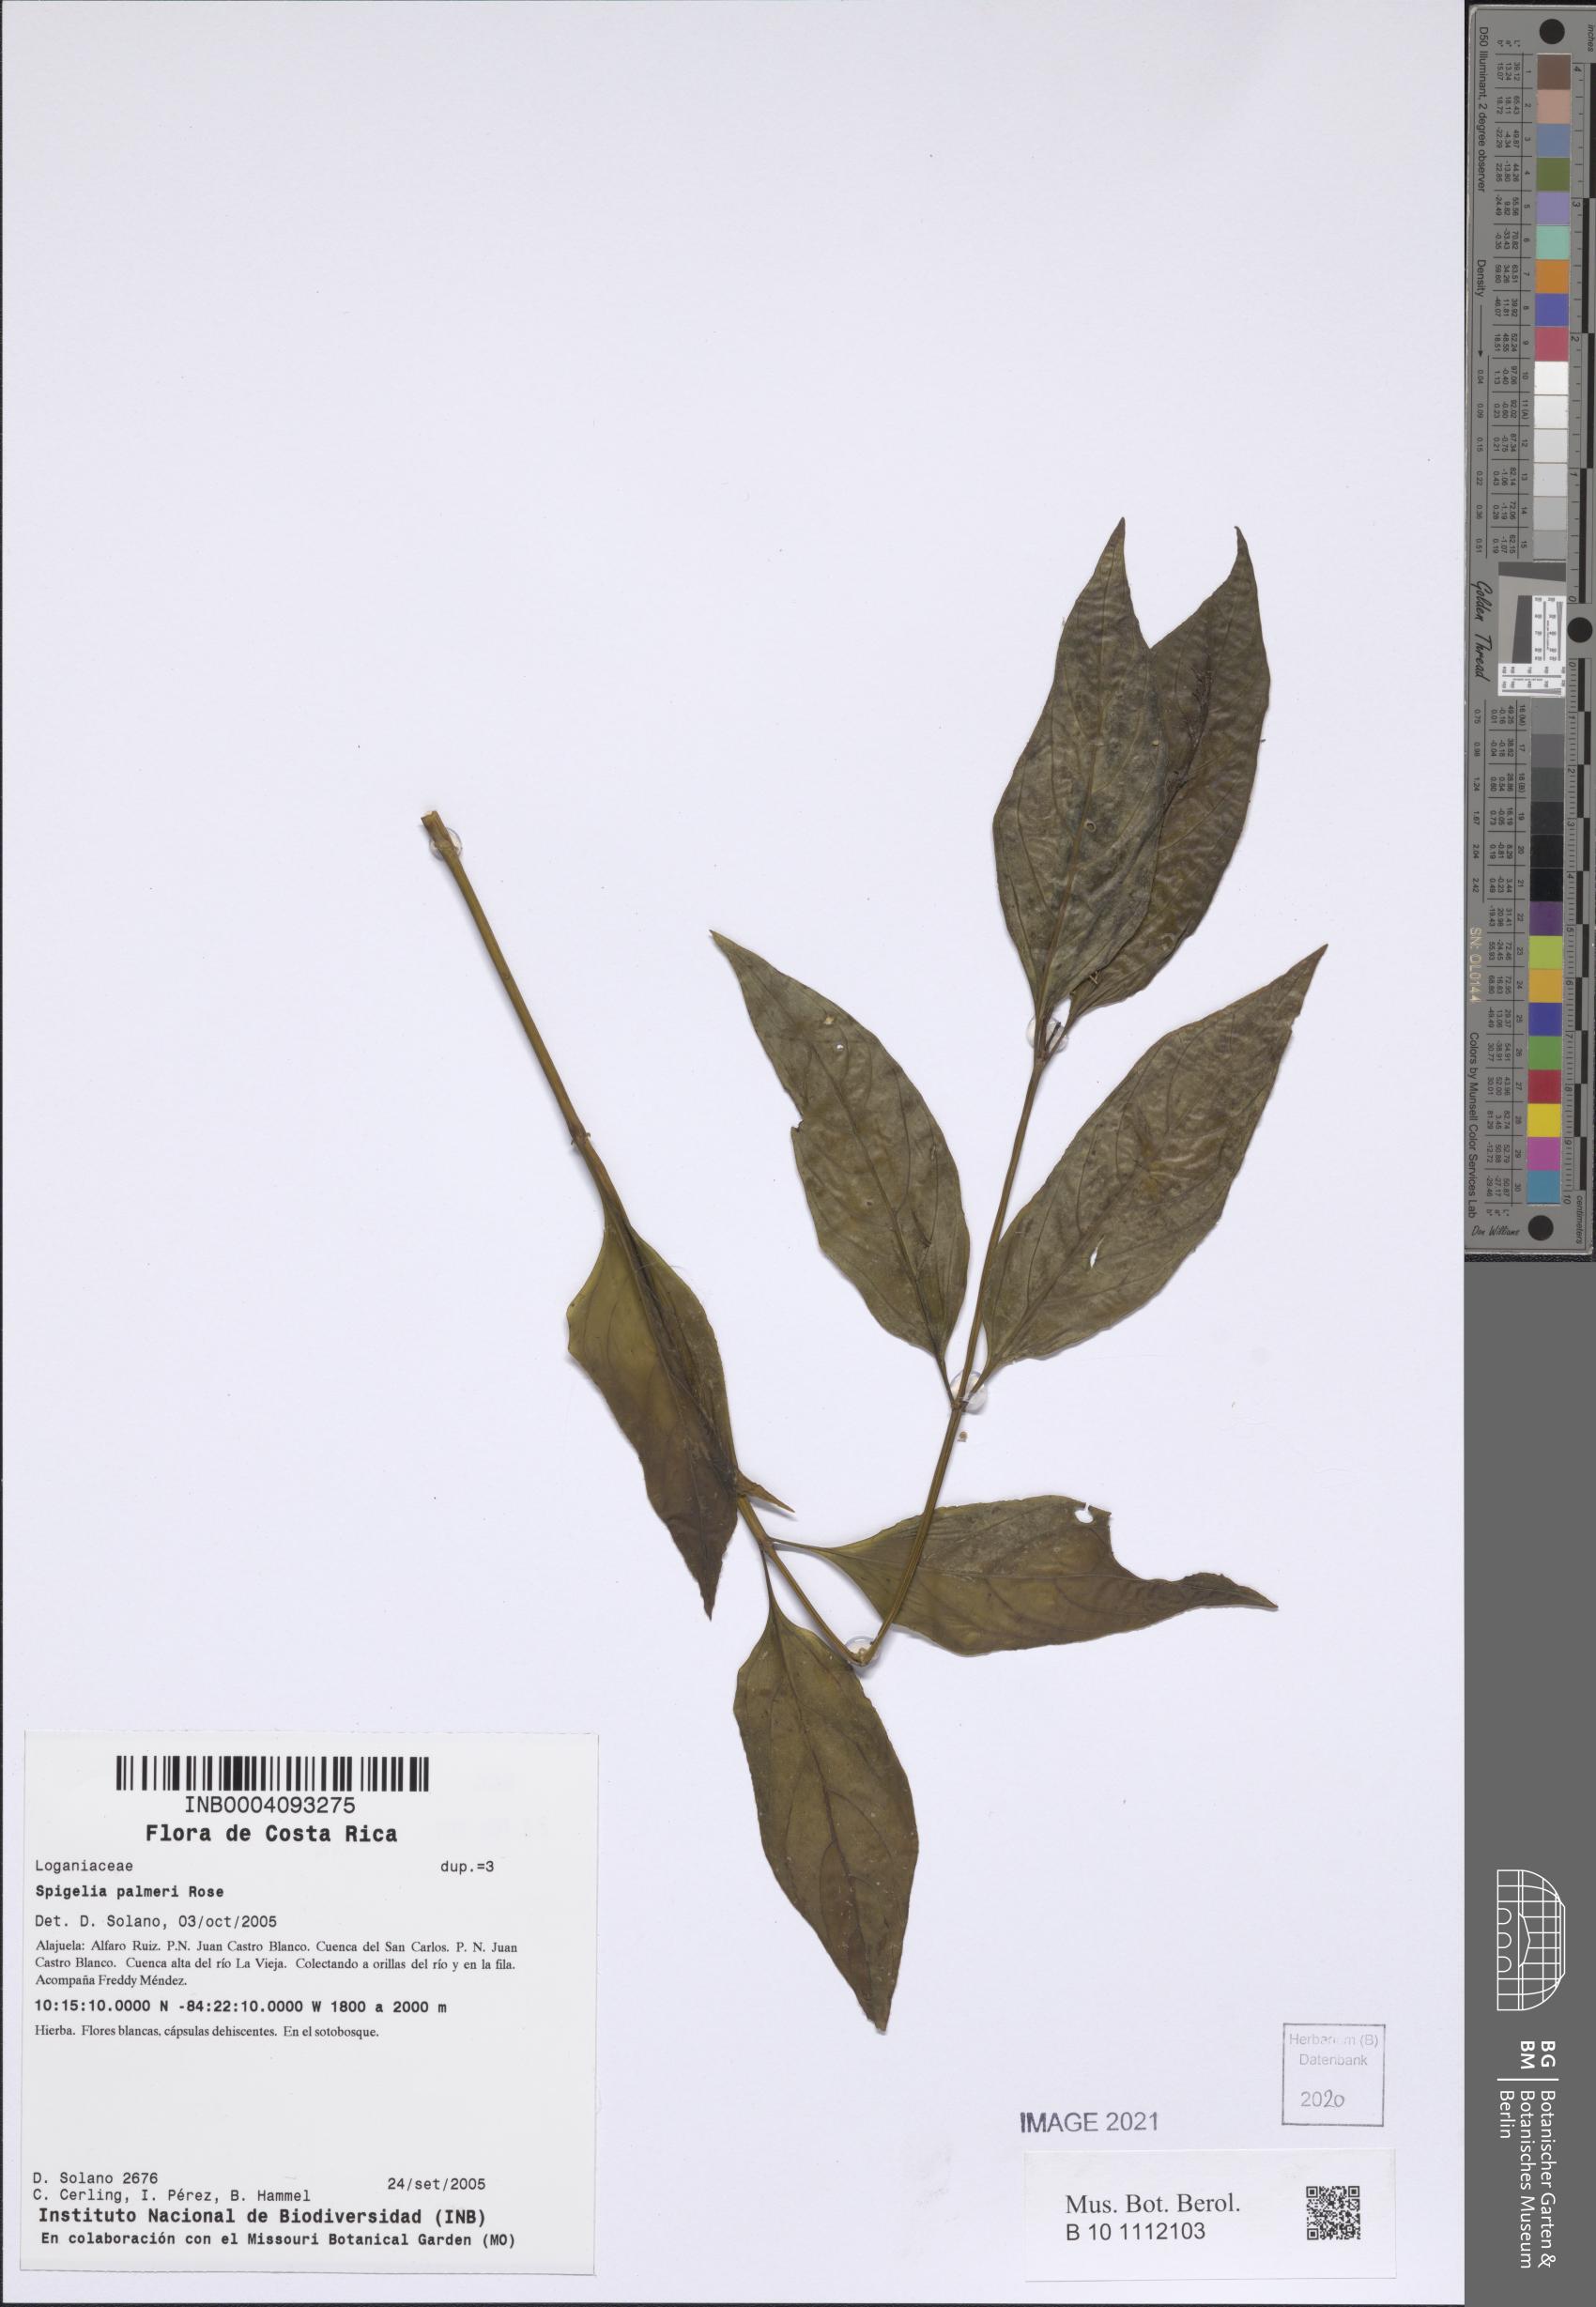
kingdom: Plantae
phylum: Tracheophyta
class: Magnoliopsida
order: Gentianales
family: Loganiaceae
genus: Spigelia
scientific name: Spigelia humboldtiana
